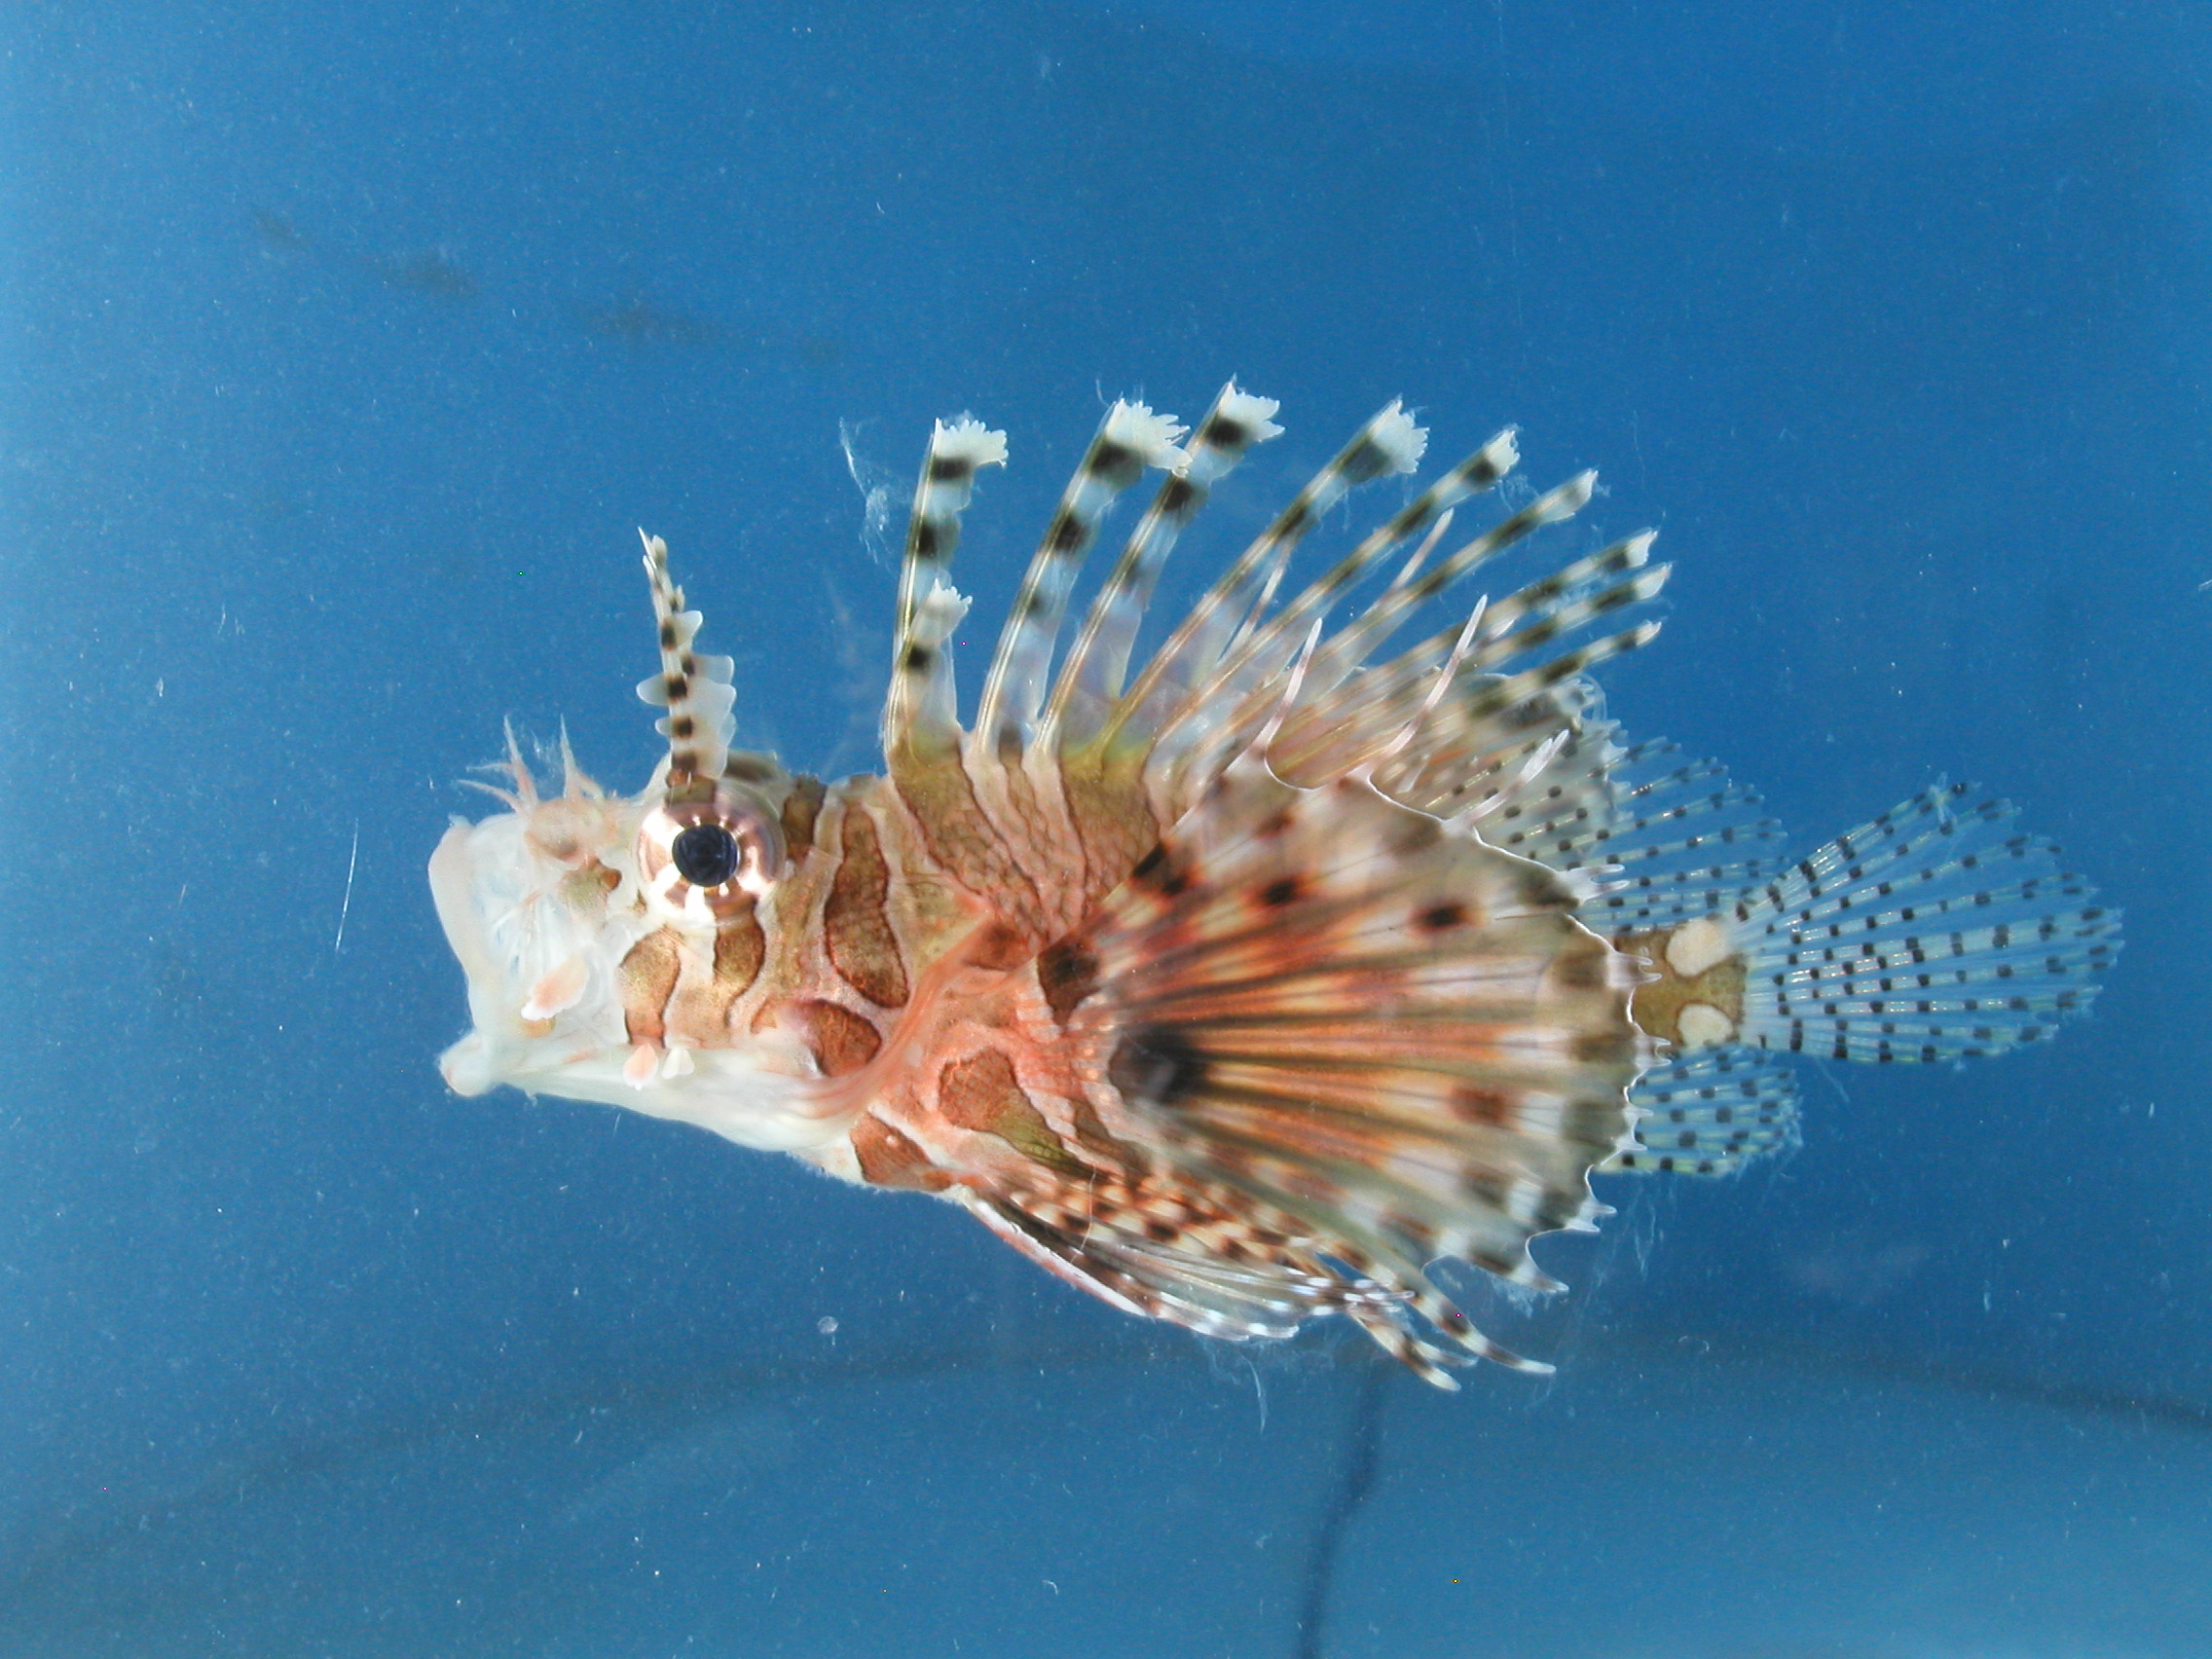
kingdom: Animalia
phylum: Chordata
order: Scorpaeniformes
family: Scorpaenidae
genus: Dendrochirus
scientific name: Dendrochirus zebra
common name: Zebra lionfish
